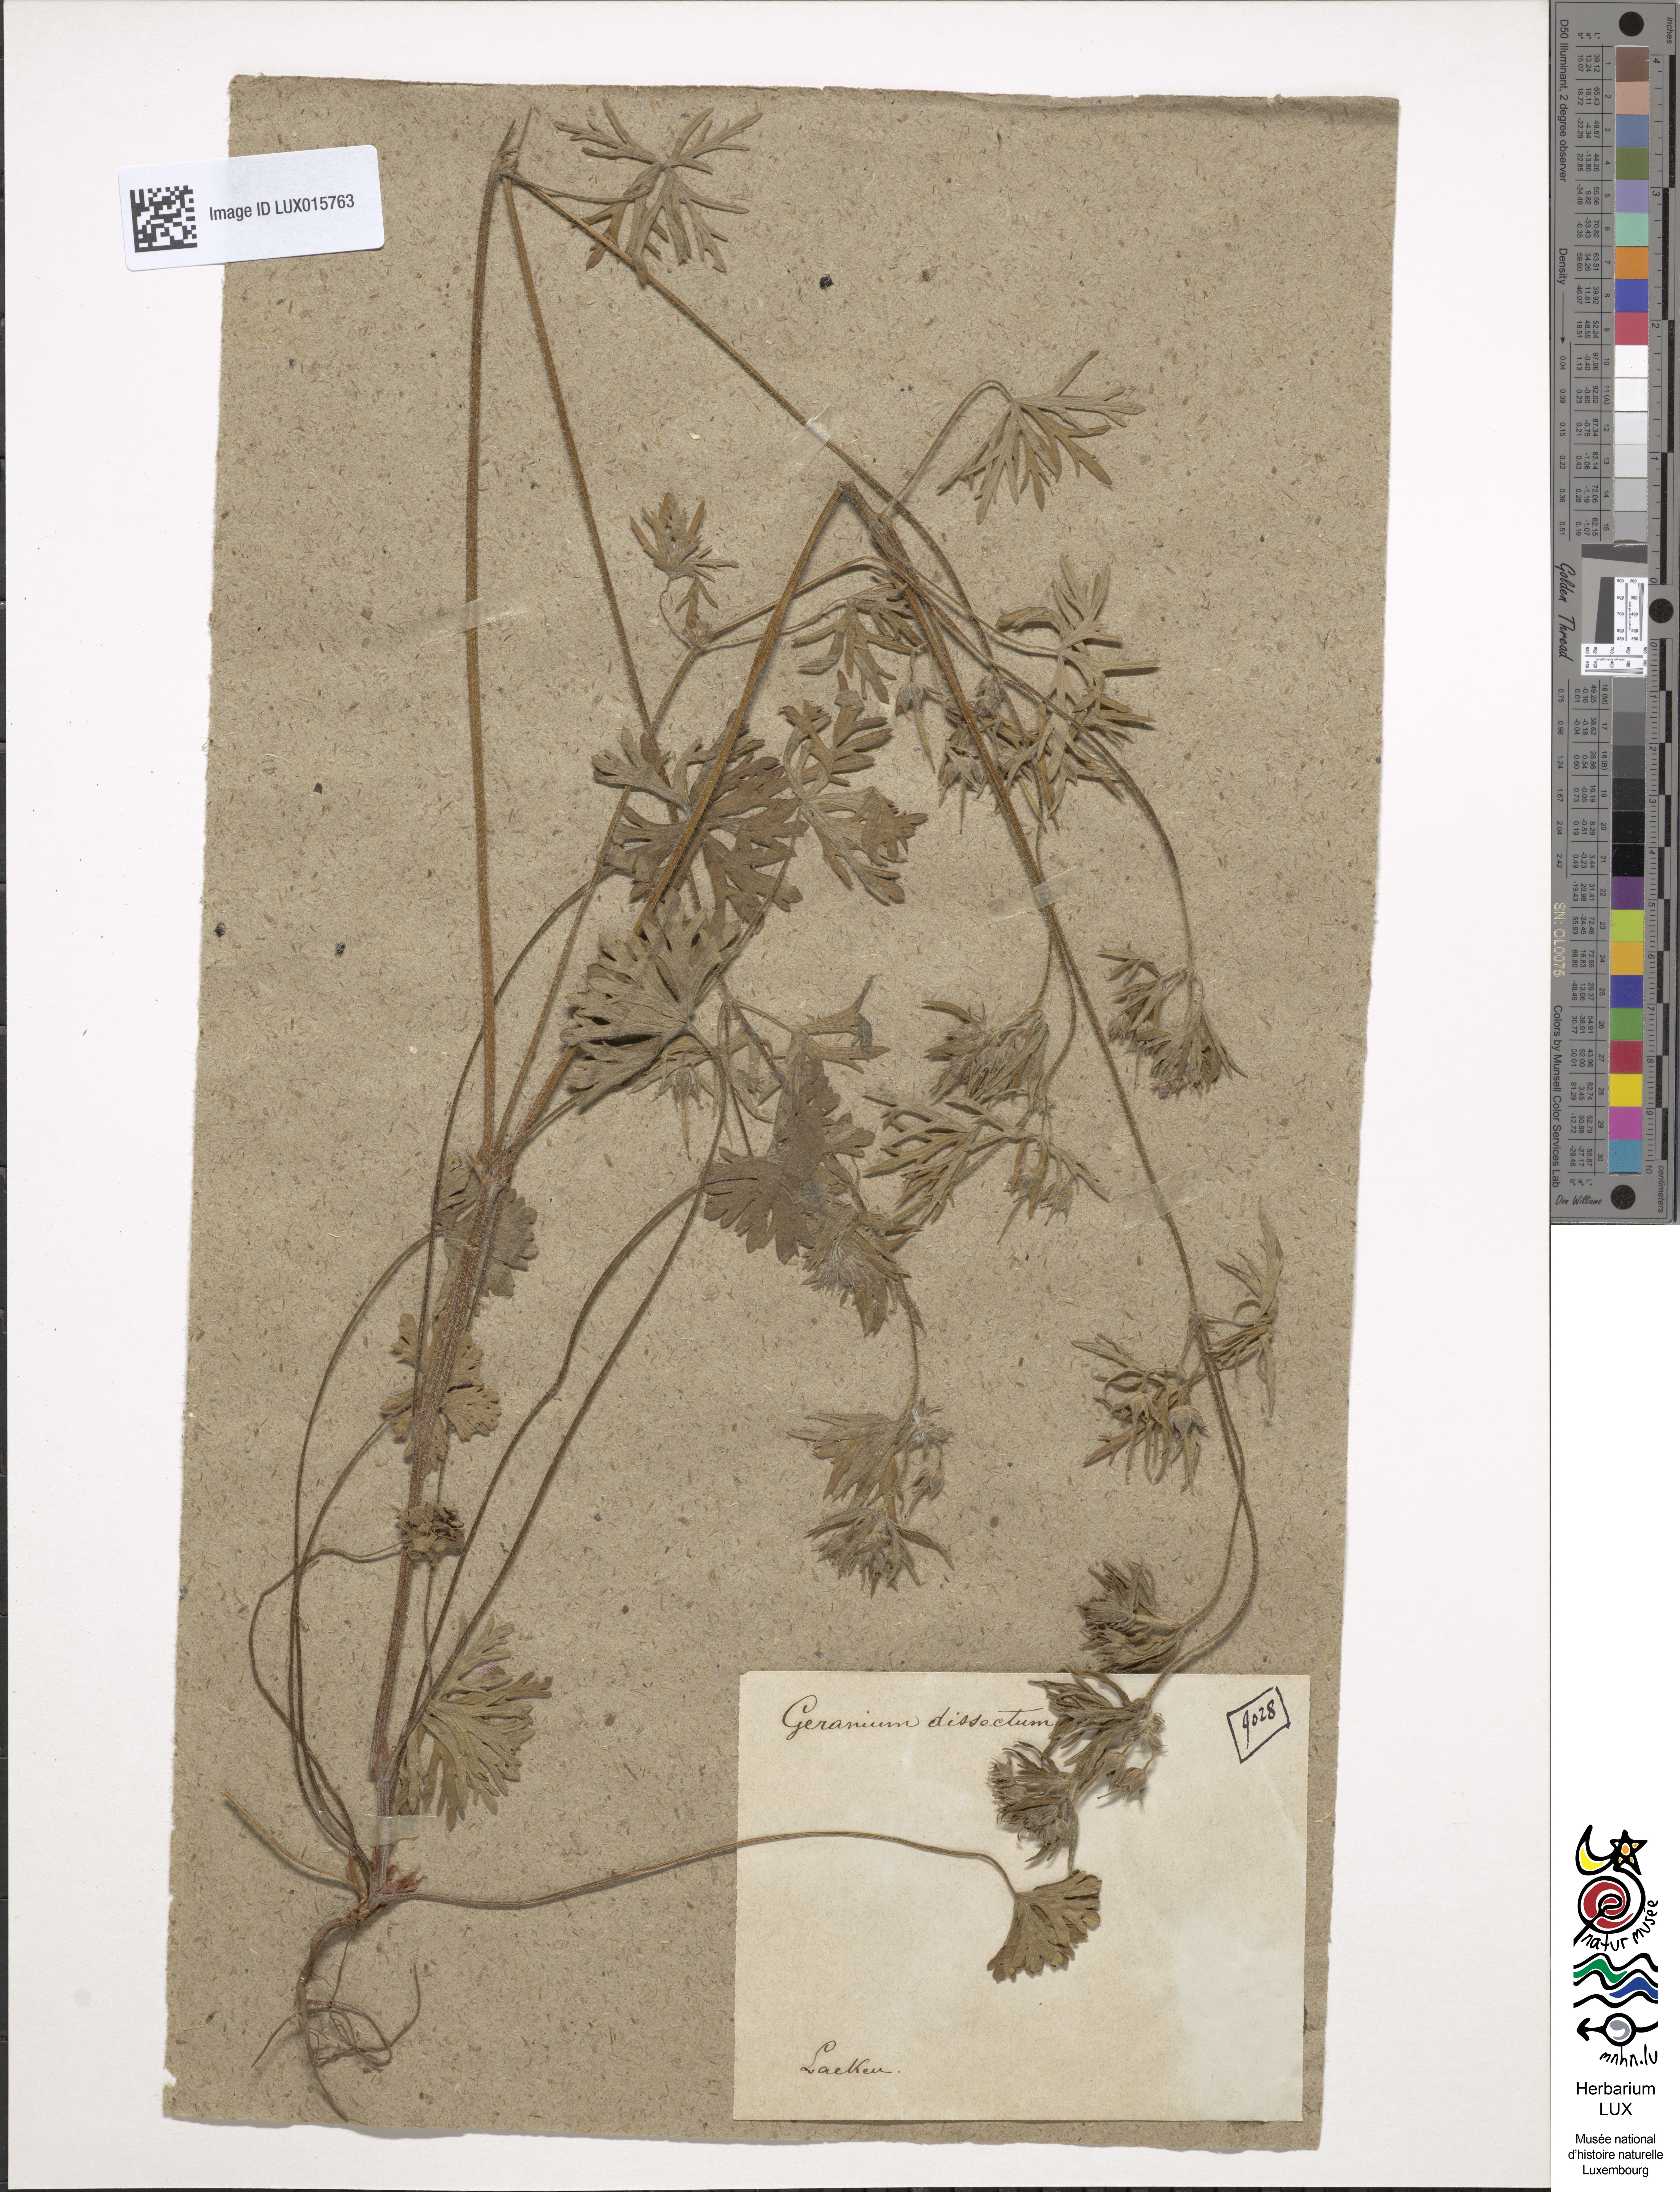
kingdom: Plantae
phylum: Tracheophyta
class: Magnoliopsida
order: Geraniales
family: Geraniaceae
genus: Geranium
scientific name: Geranium dissectum
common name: Cut-leaved crane's-bill
